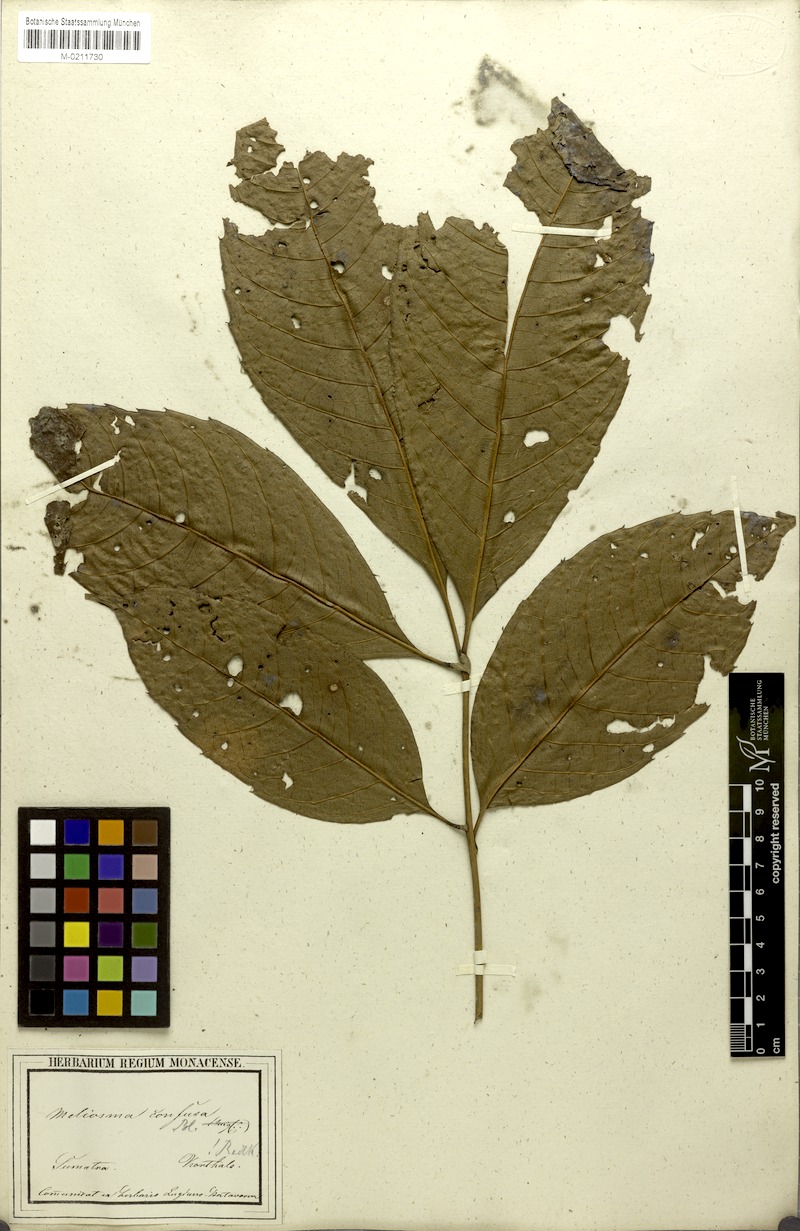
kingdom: Plantae
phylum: Tracheophyta
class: Magnoliopsida
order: Proteales
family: Sabiaceae
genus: Meliosma
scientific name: Meliosma sumatrana
